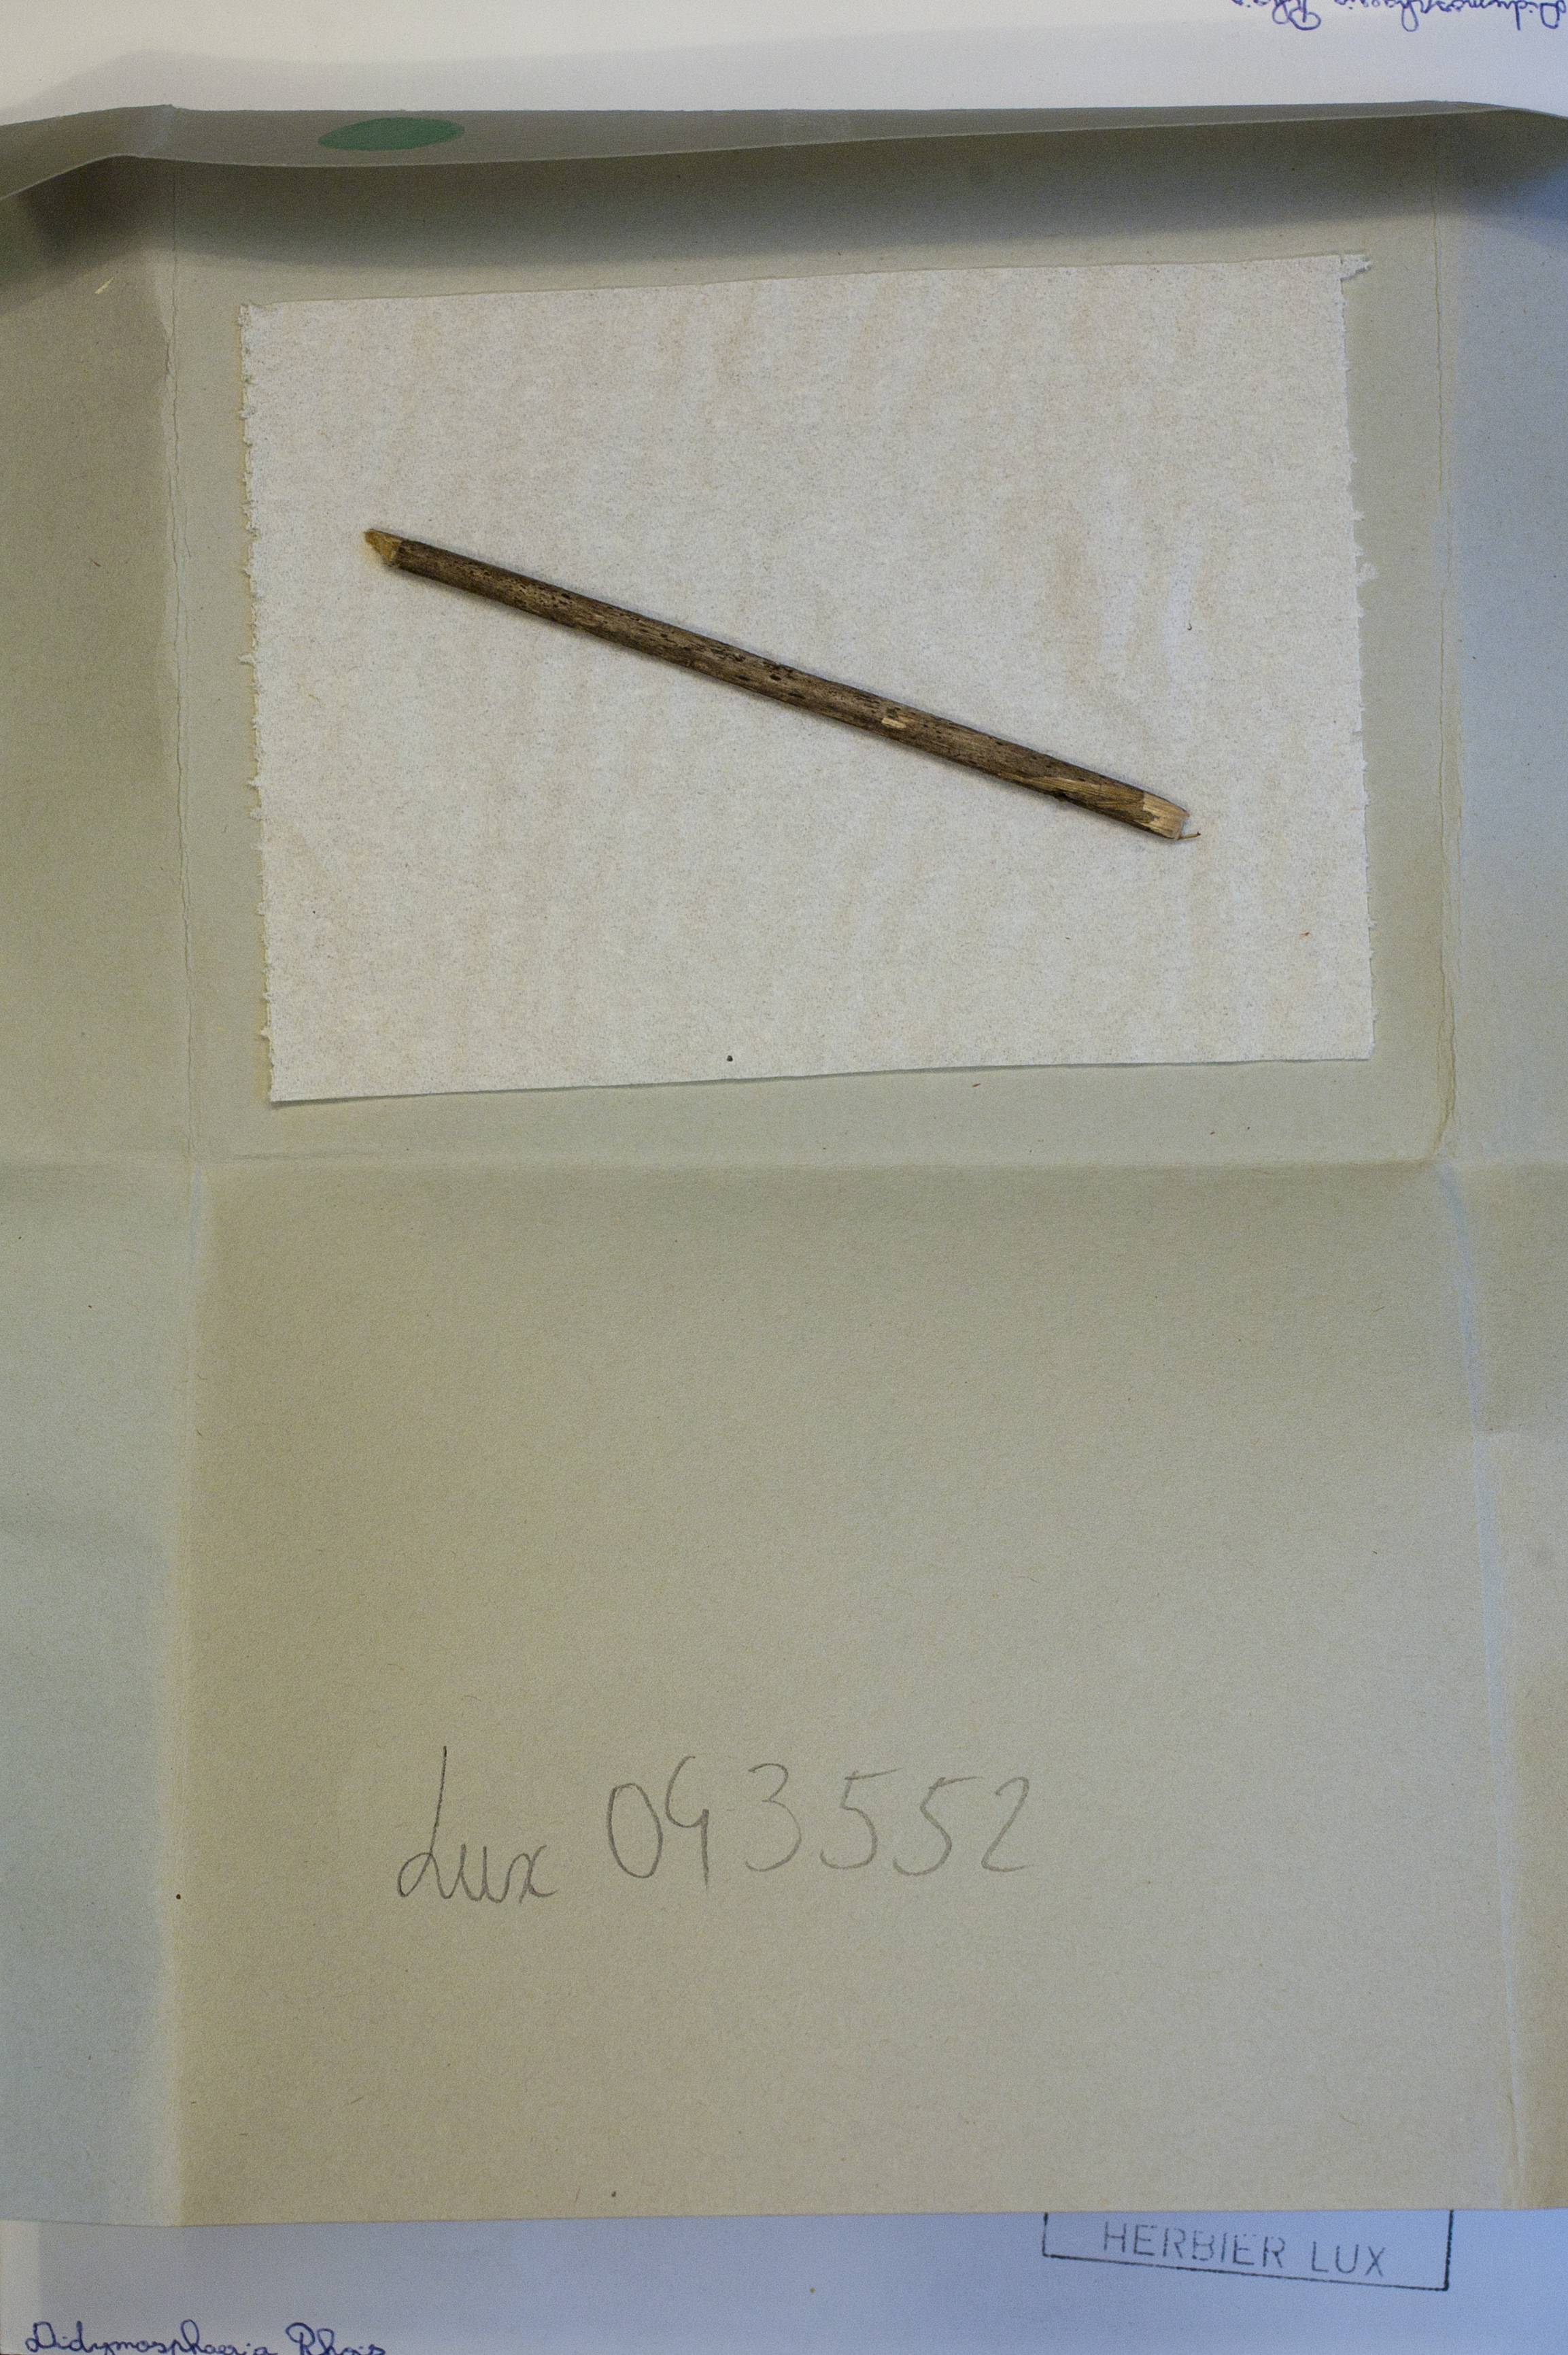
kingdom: Fungi
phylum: Ascomycota
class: Dothideomycetes
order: Pleosporales
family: Didymosphaeriaceae
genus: Didymosphaeria
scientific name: Didymosphaeria rhois
